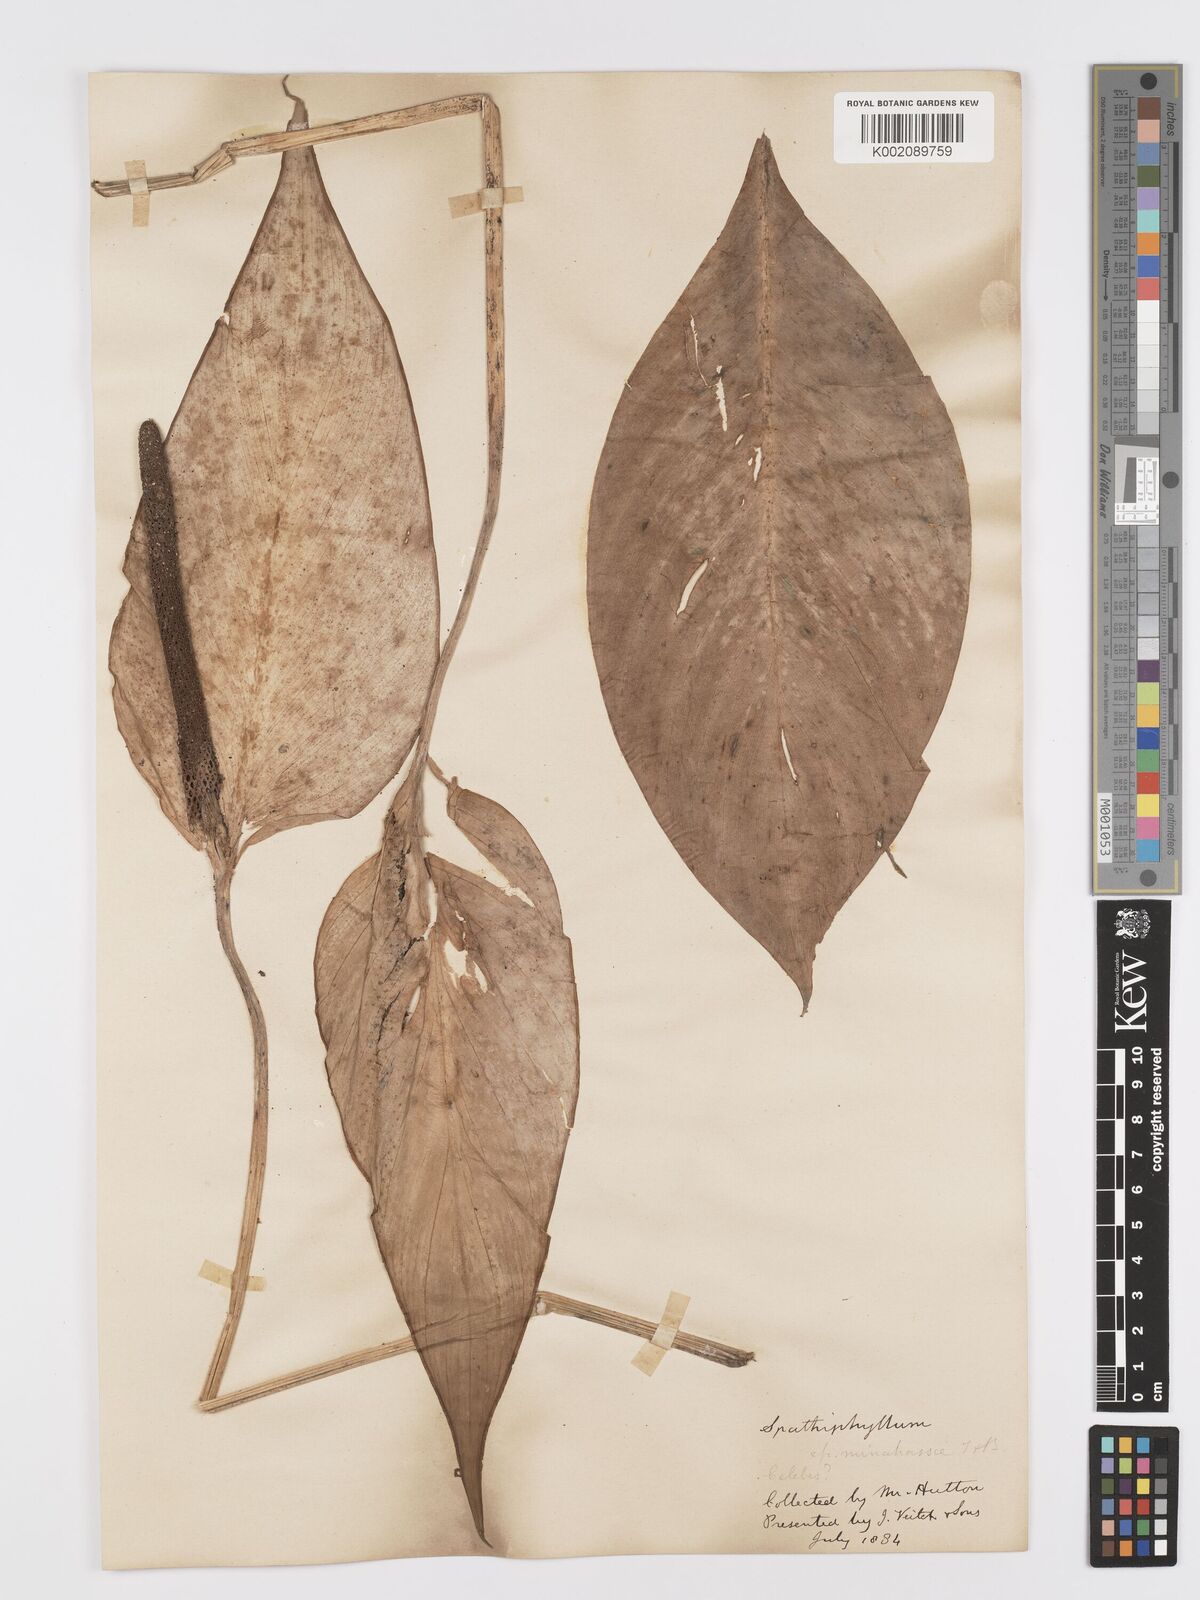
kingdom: Plantae
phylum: Tracheophyta
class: Liliopsida
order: Alismatales
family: Araceae
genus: Spathiphyllum
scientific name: Spathiphyllum commutatum
